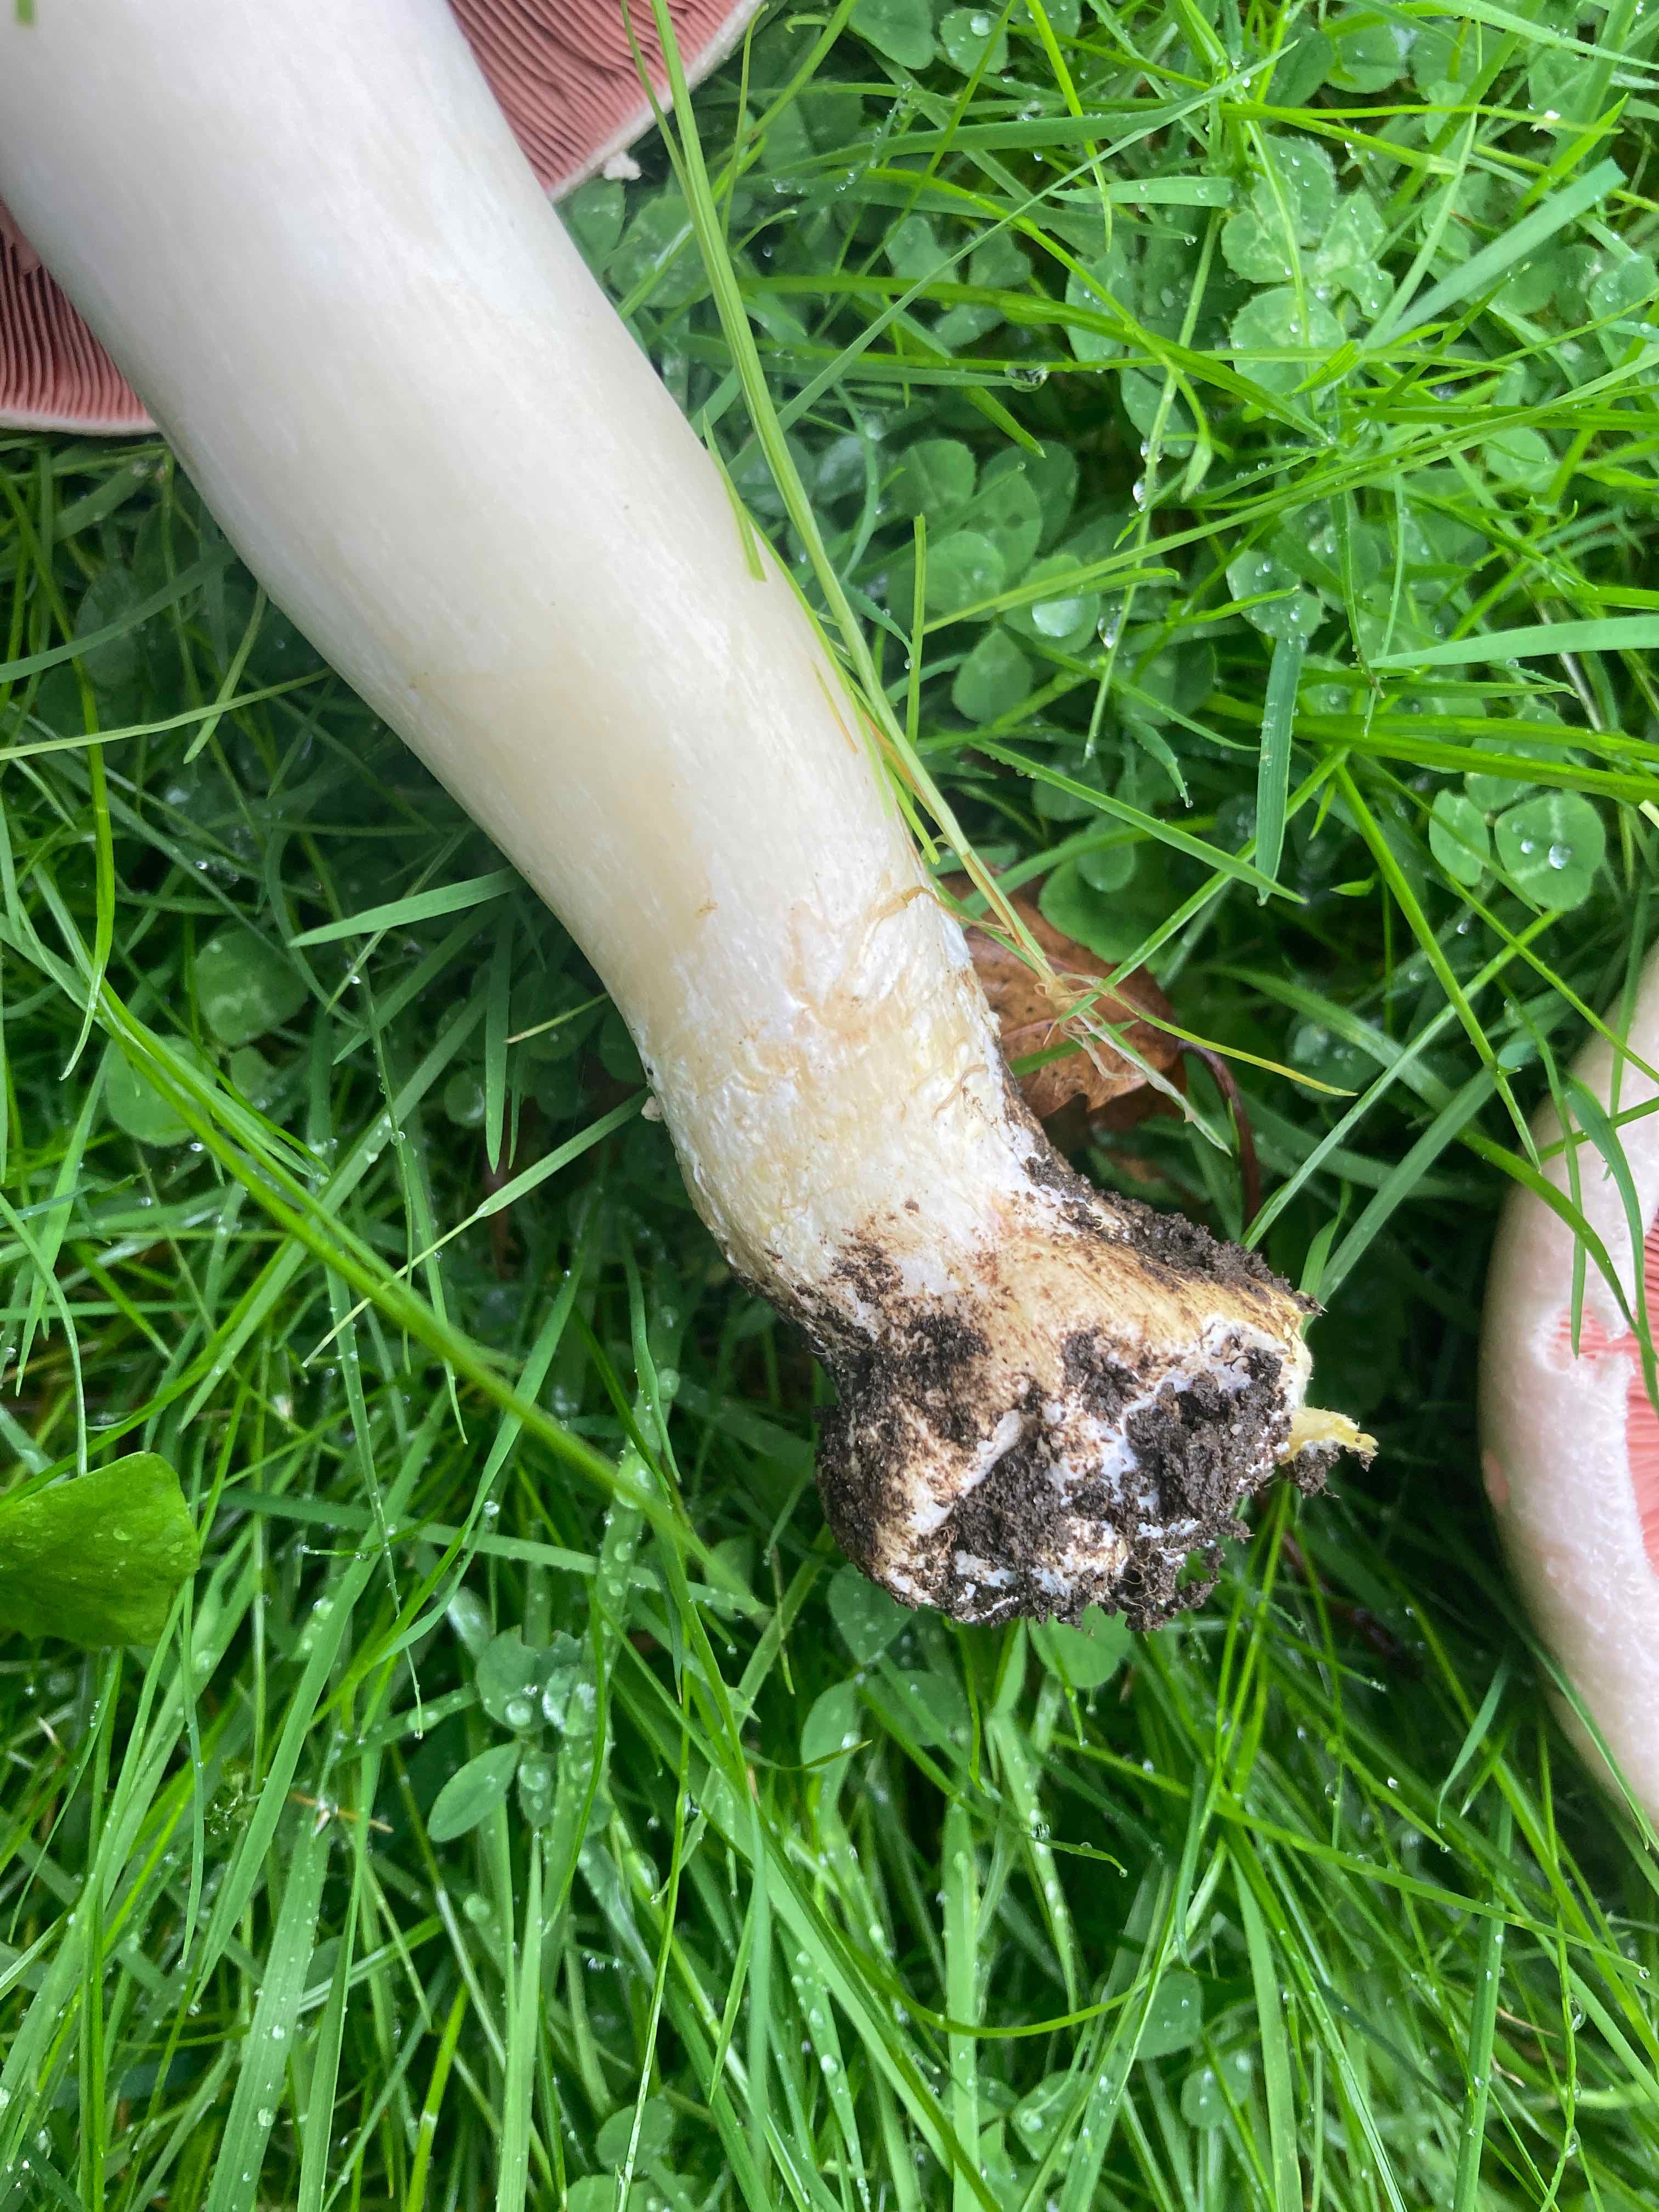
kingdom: Fungi
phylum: Basidiomycota
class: Agaricomycetes
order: Agaricales
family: Agaricaceae
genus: Agaricus
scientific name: Agaricus campestris
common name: mark-champignon
